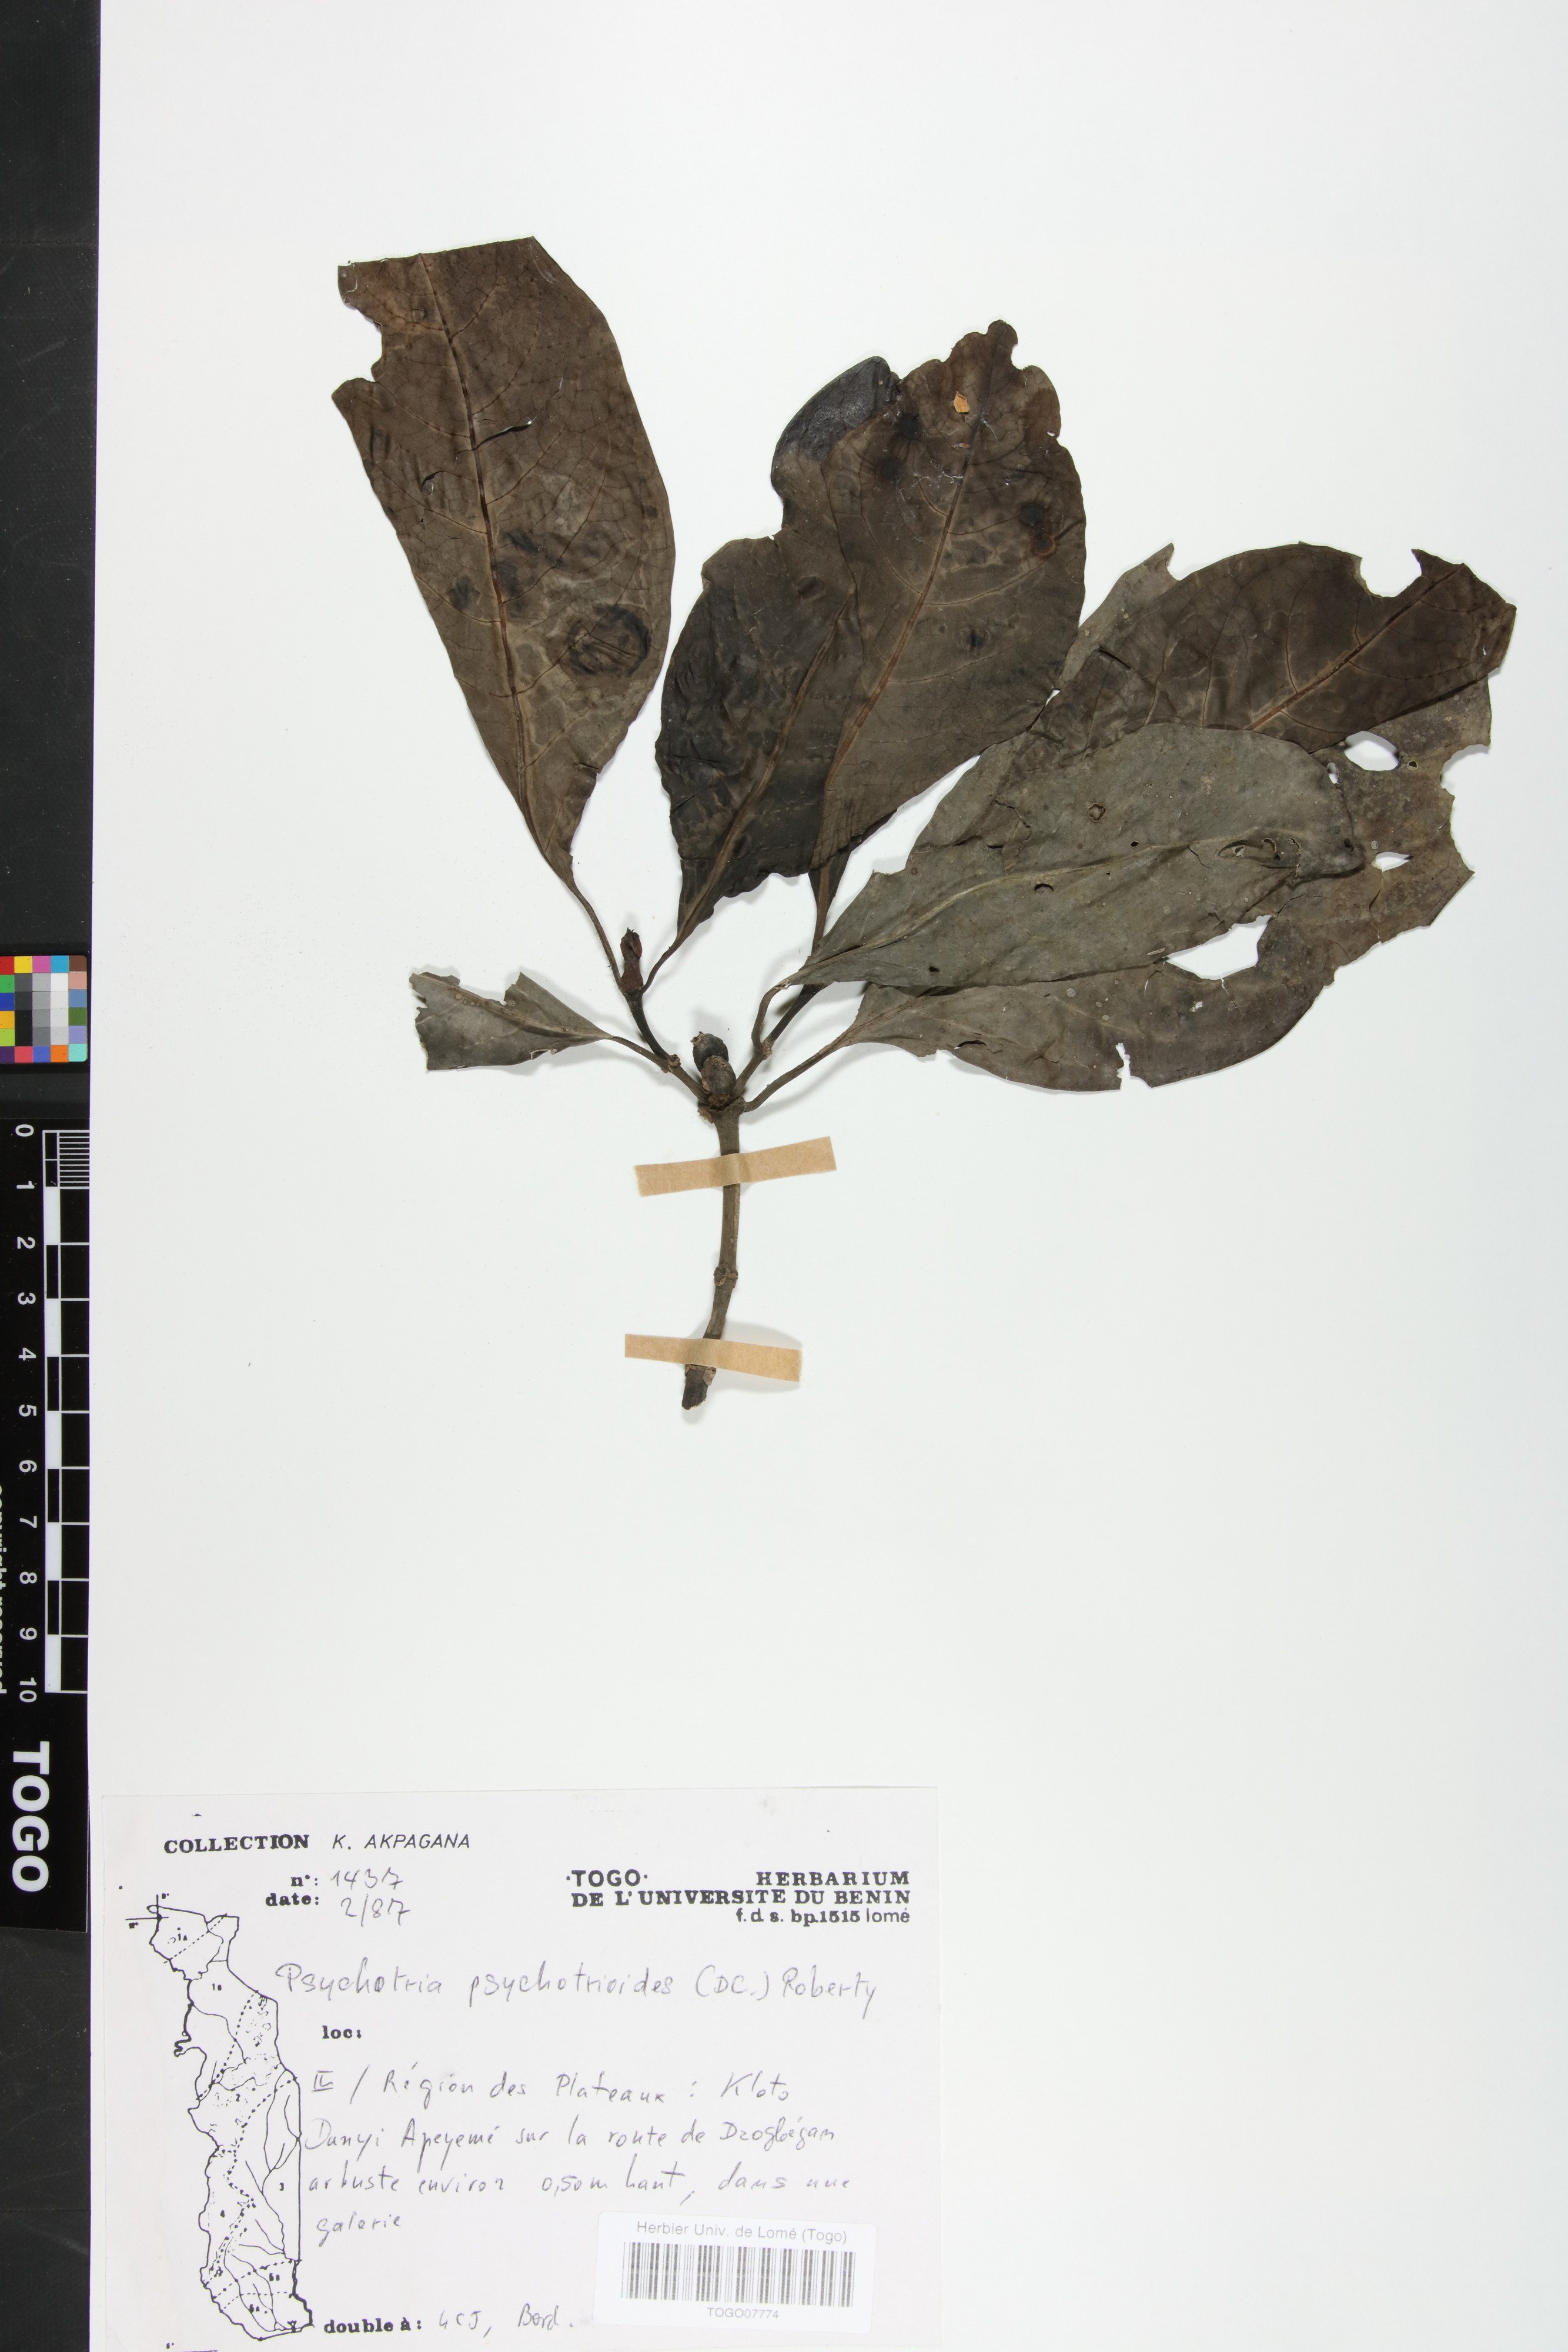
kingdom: Plantae
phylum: Tracheophyta
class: Magnoliopsida
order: Gentianales
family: Rubiaceae
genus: Psychotria
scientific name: Psychotria psychotrioides
